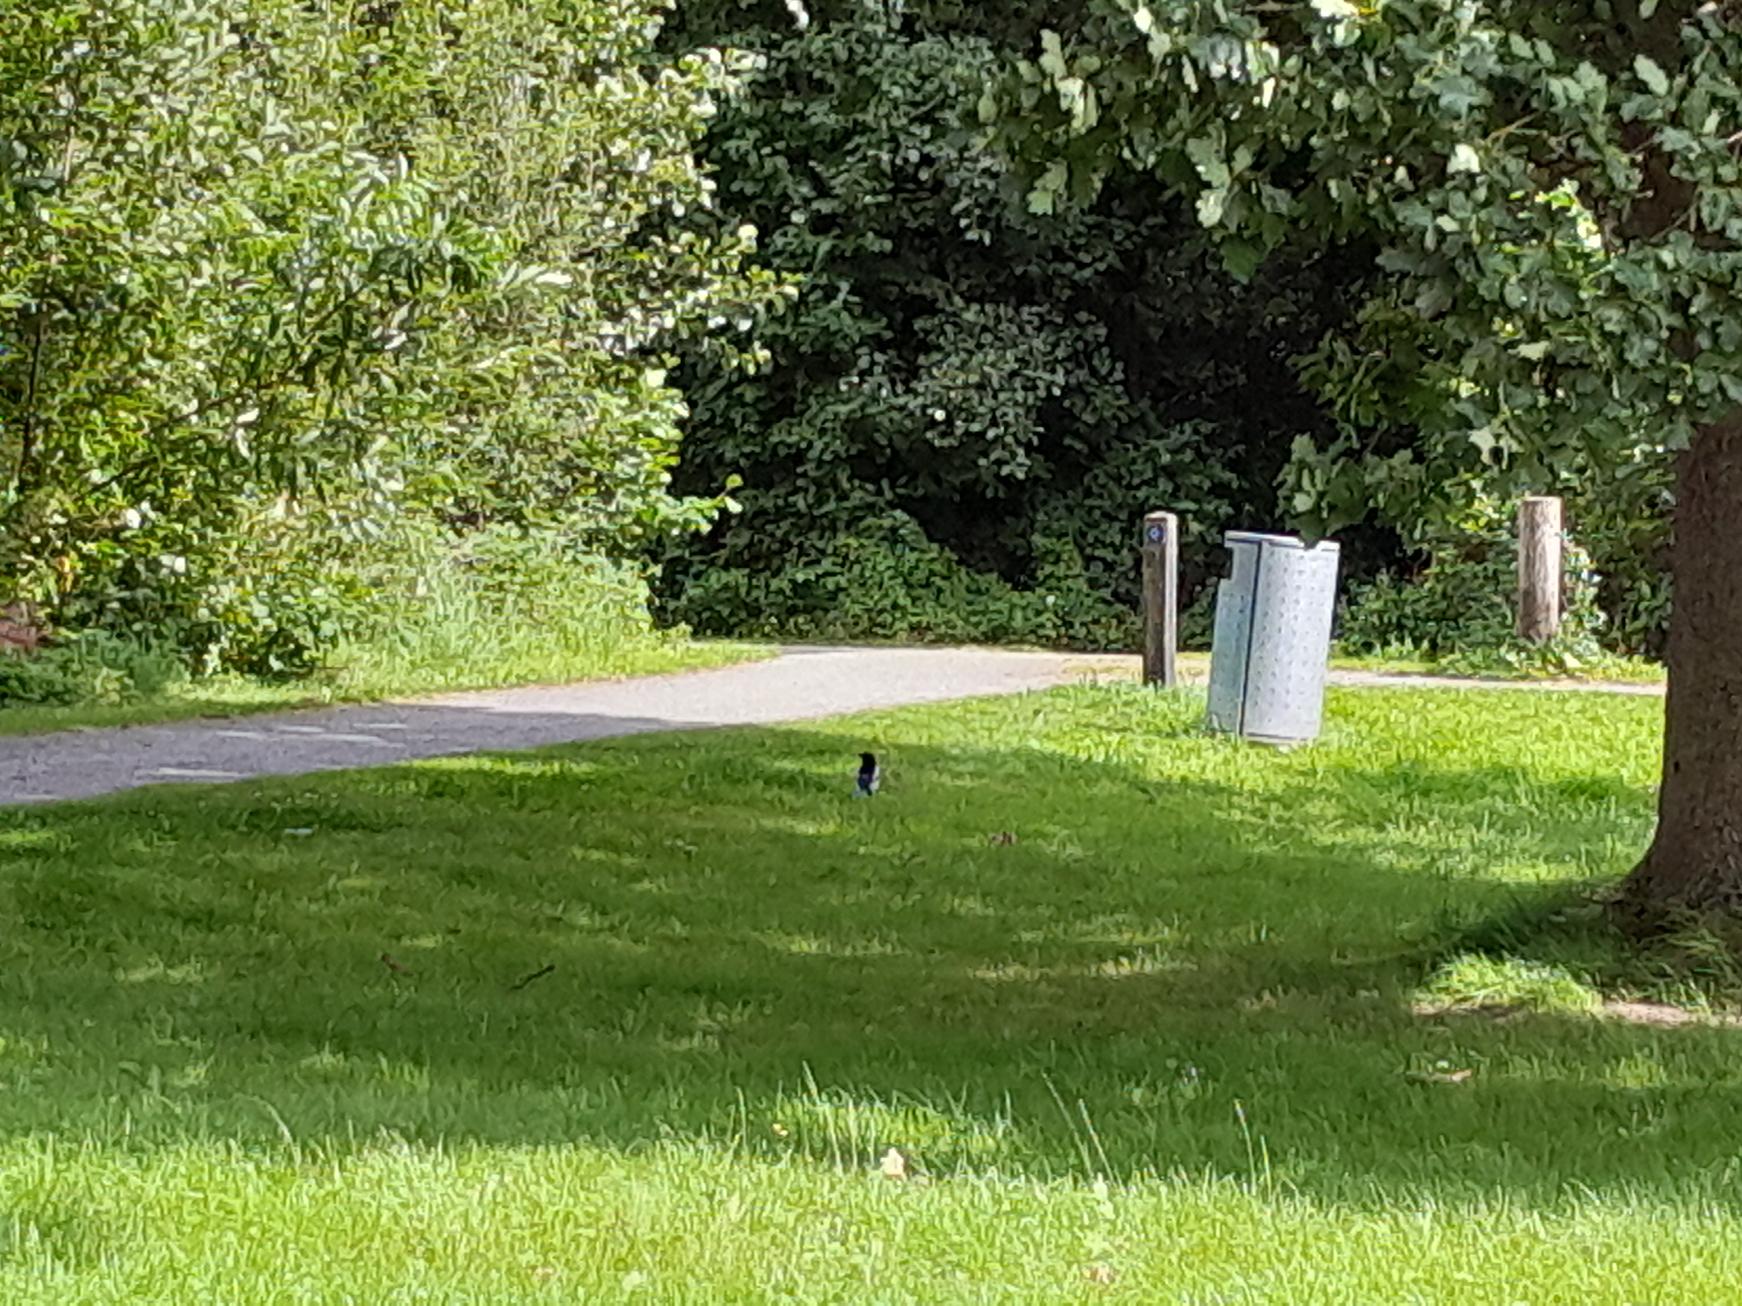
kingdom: Animalia
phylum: Chordata
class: Aves
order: Passeriformes
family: Corvidae
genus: Pica
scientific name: Pica pica
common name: Husskade
